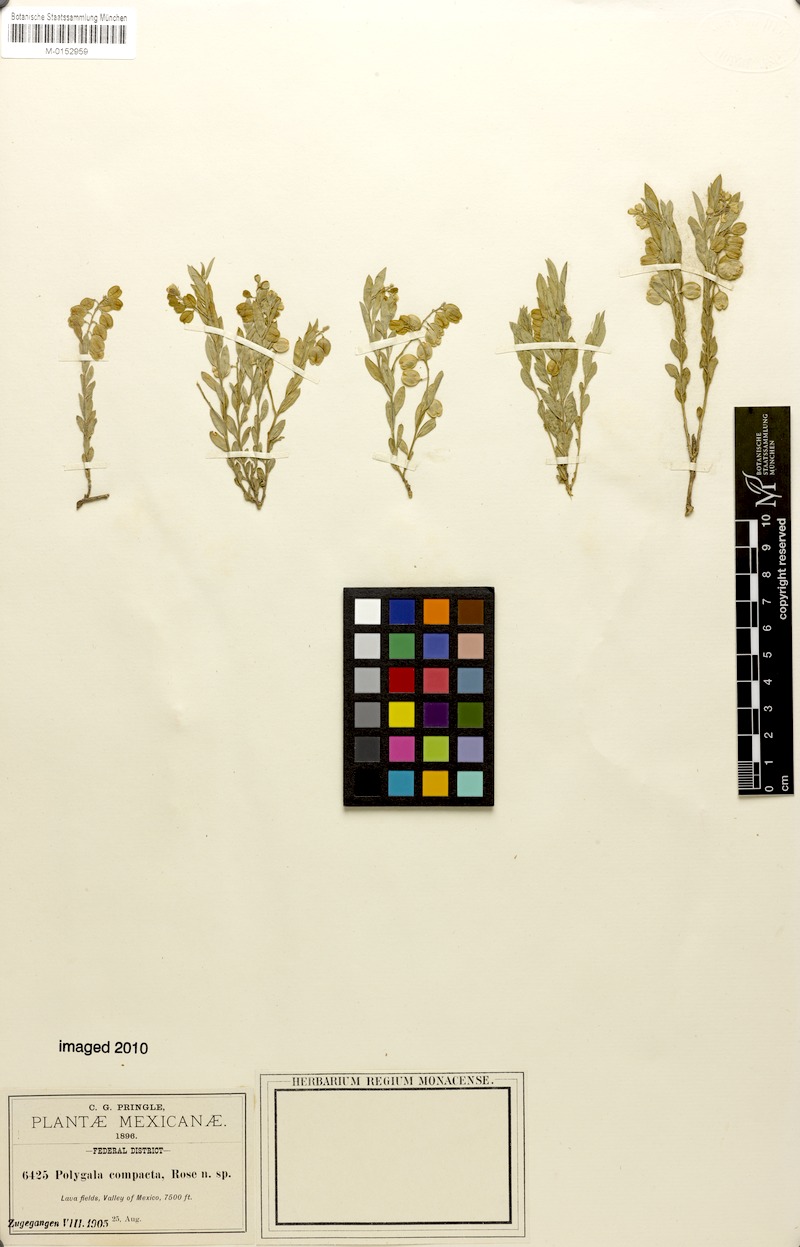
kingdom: Plantae
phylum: Tracheophyta
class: Magnoliopsida
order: Fabales
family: Polygalaceae
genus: Polygala
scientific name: Polygala compacta
